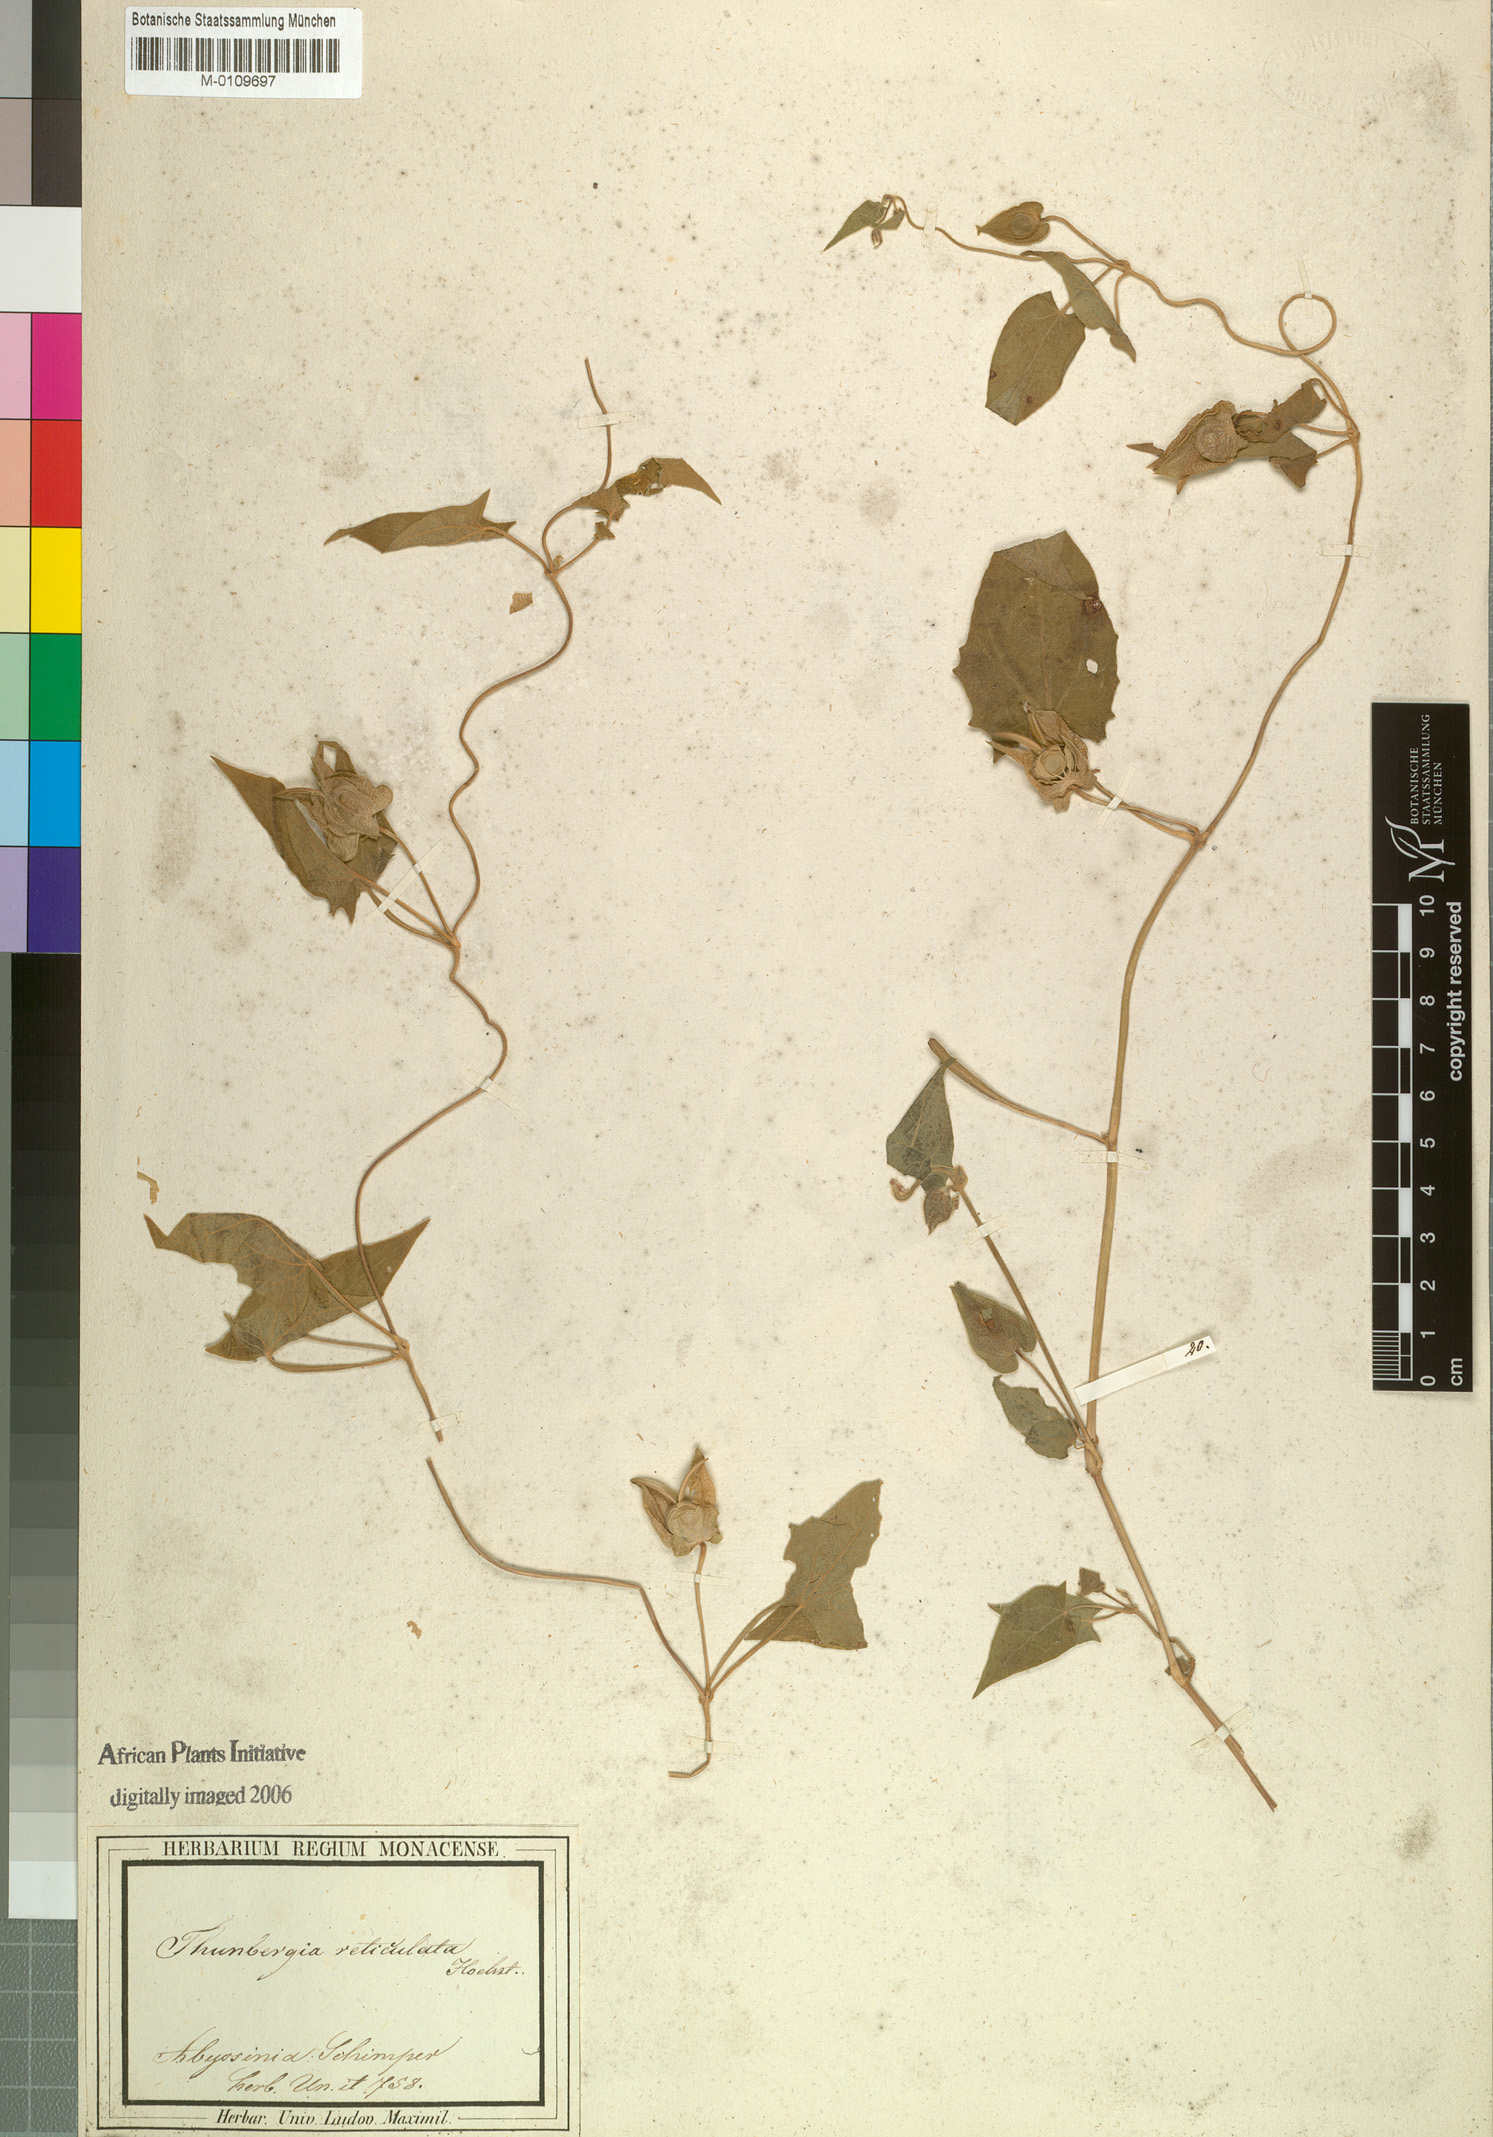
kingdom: Plantae
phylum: Tracheophyta
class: Magnoliopsida
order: Lamiales
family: Acanthaceae
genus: Thunbergia
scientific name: Thunbergia reticulata
